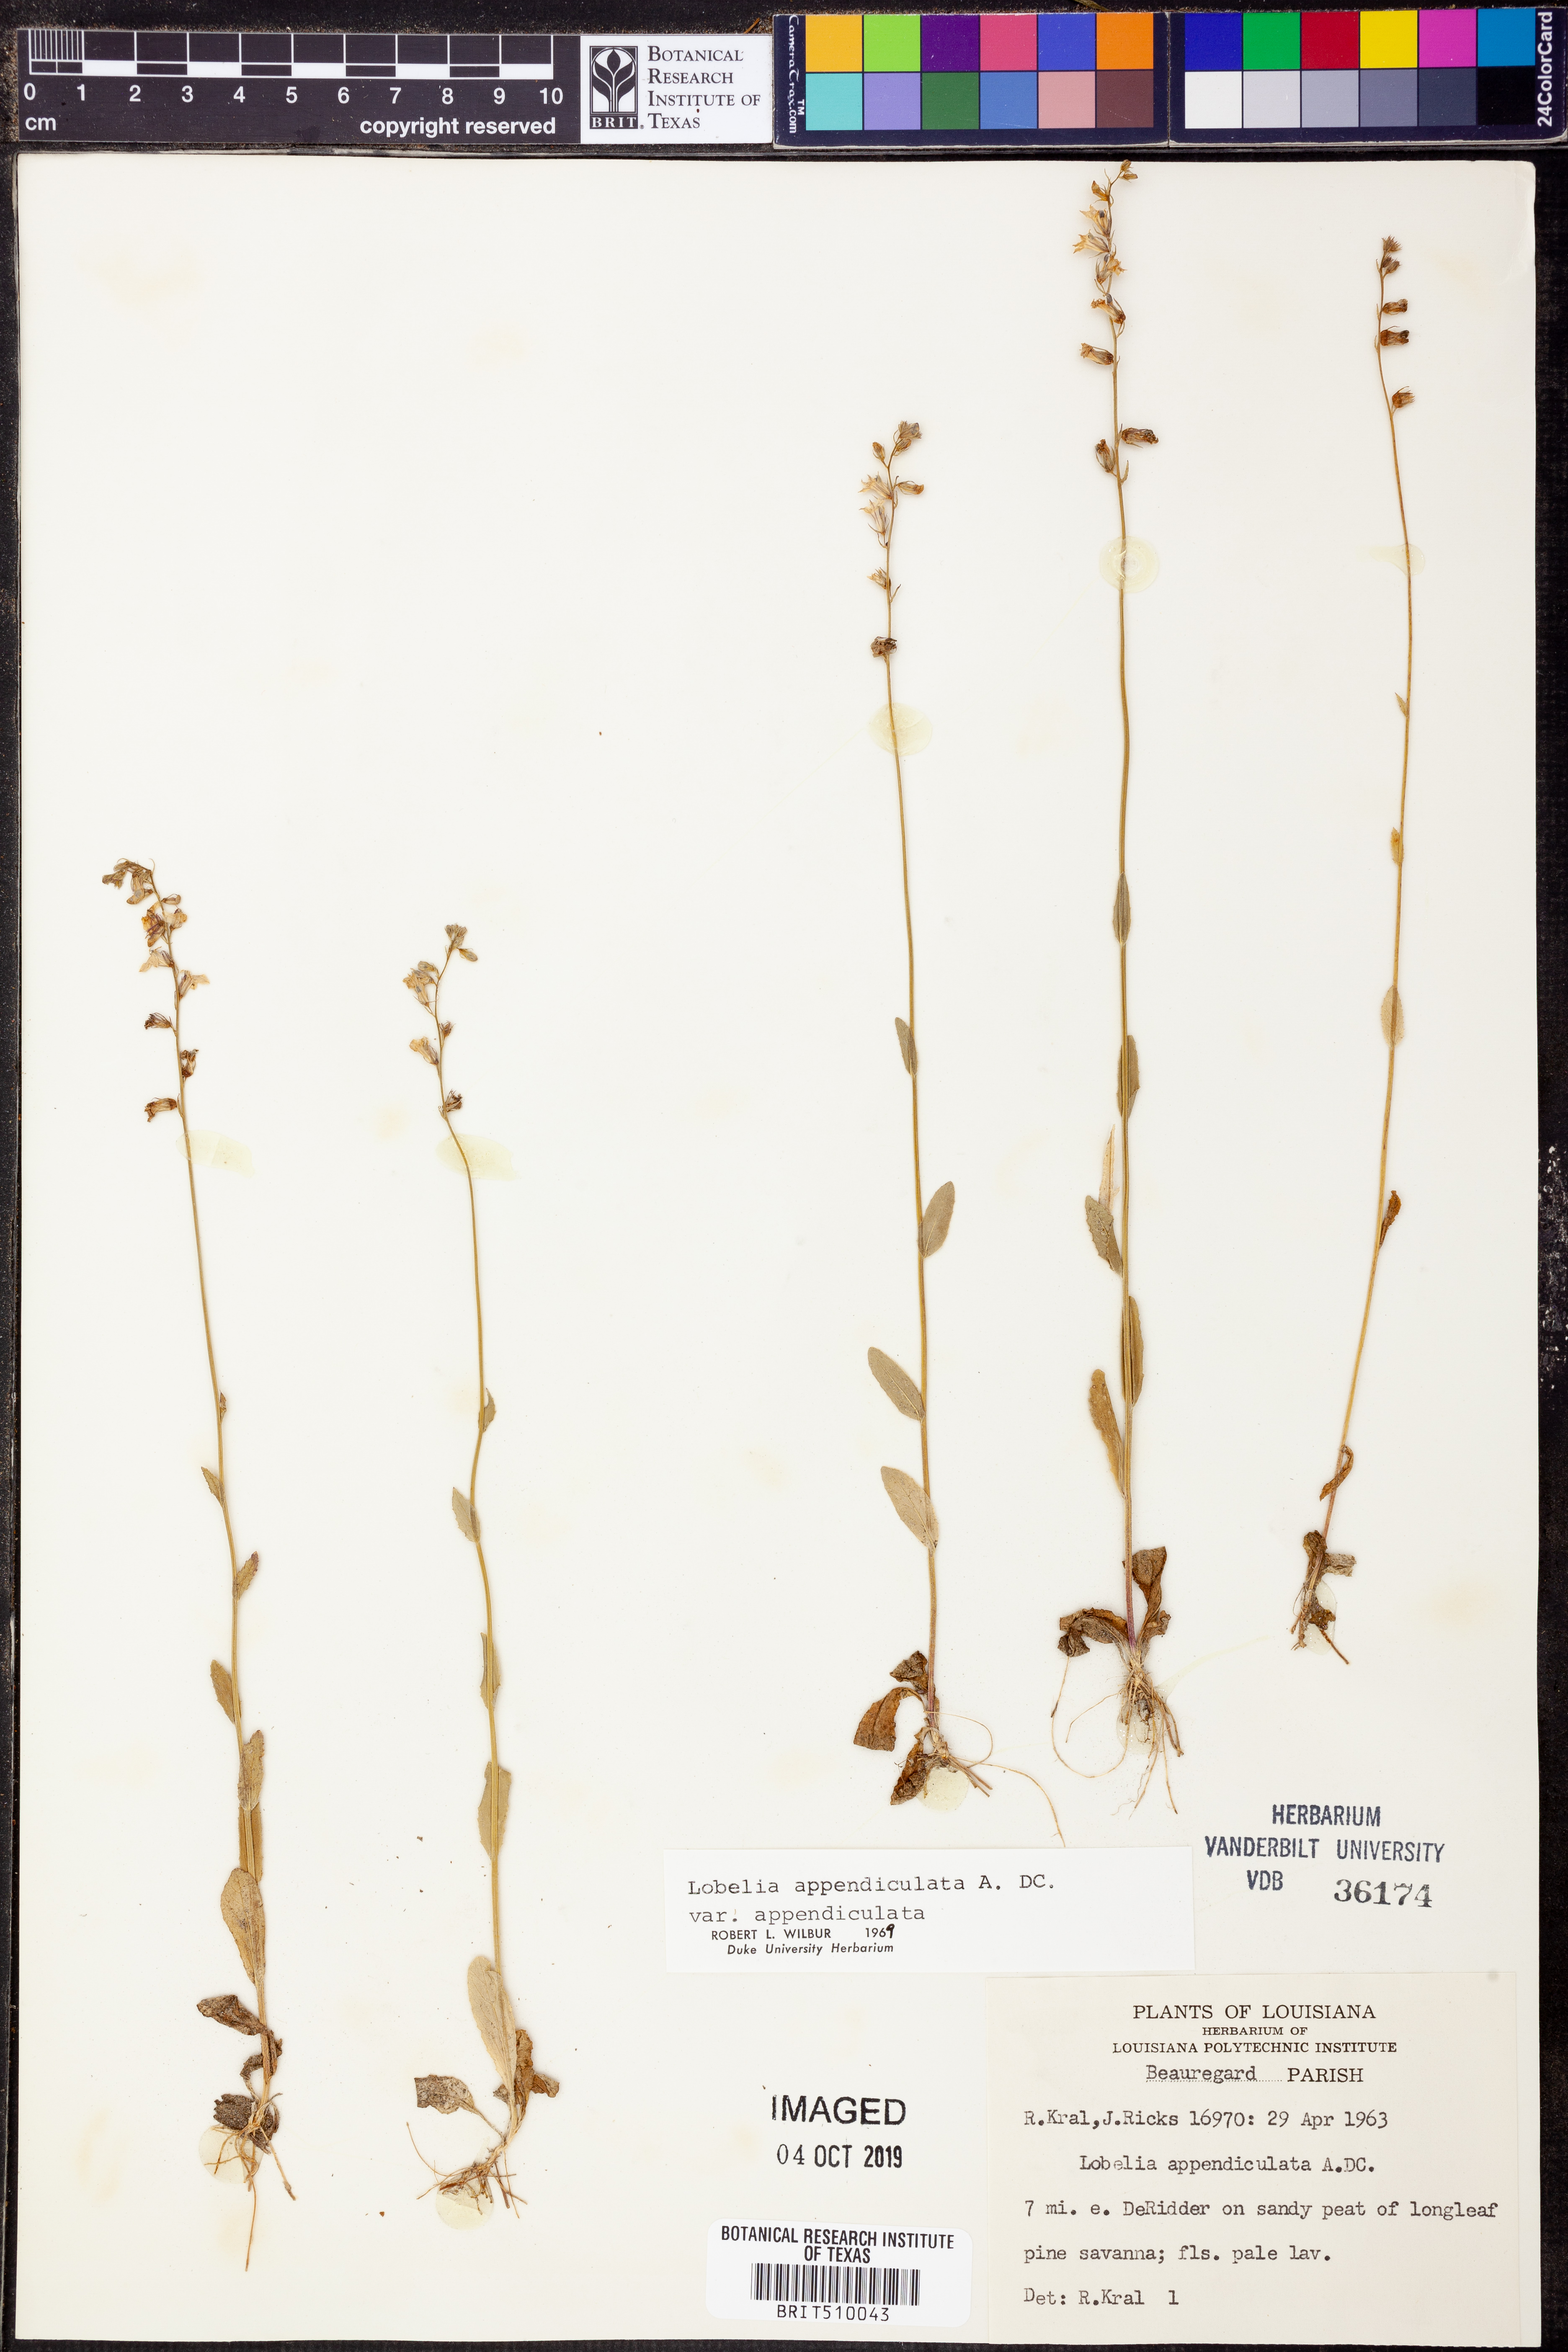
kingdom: Plantae
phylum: Tracheophyta
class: Magnoliopsida
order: Asterales
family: Campanulaceae
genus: Lobelia
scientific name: Lobelia appendiculata
